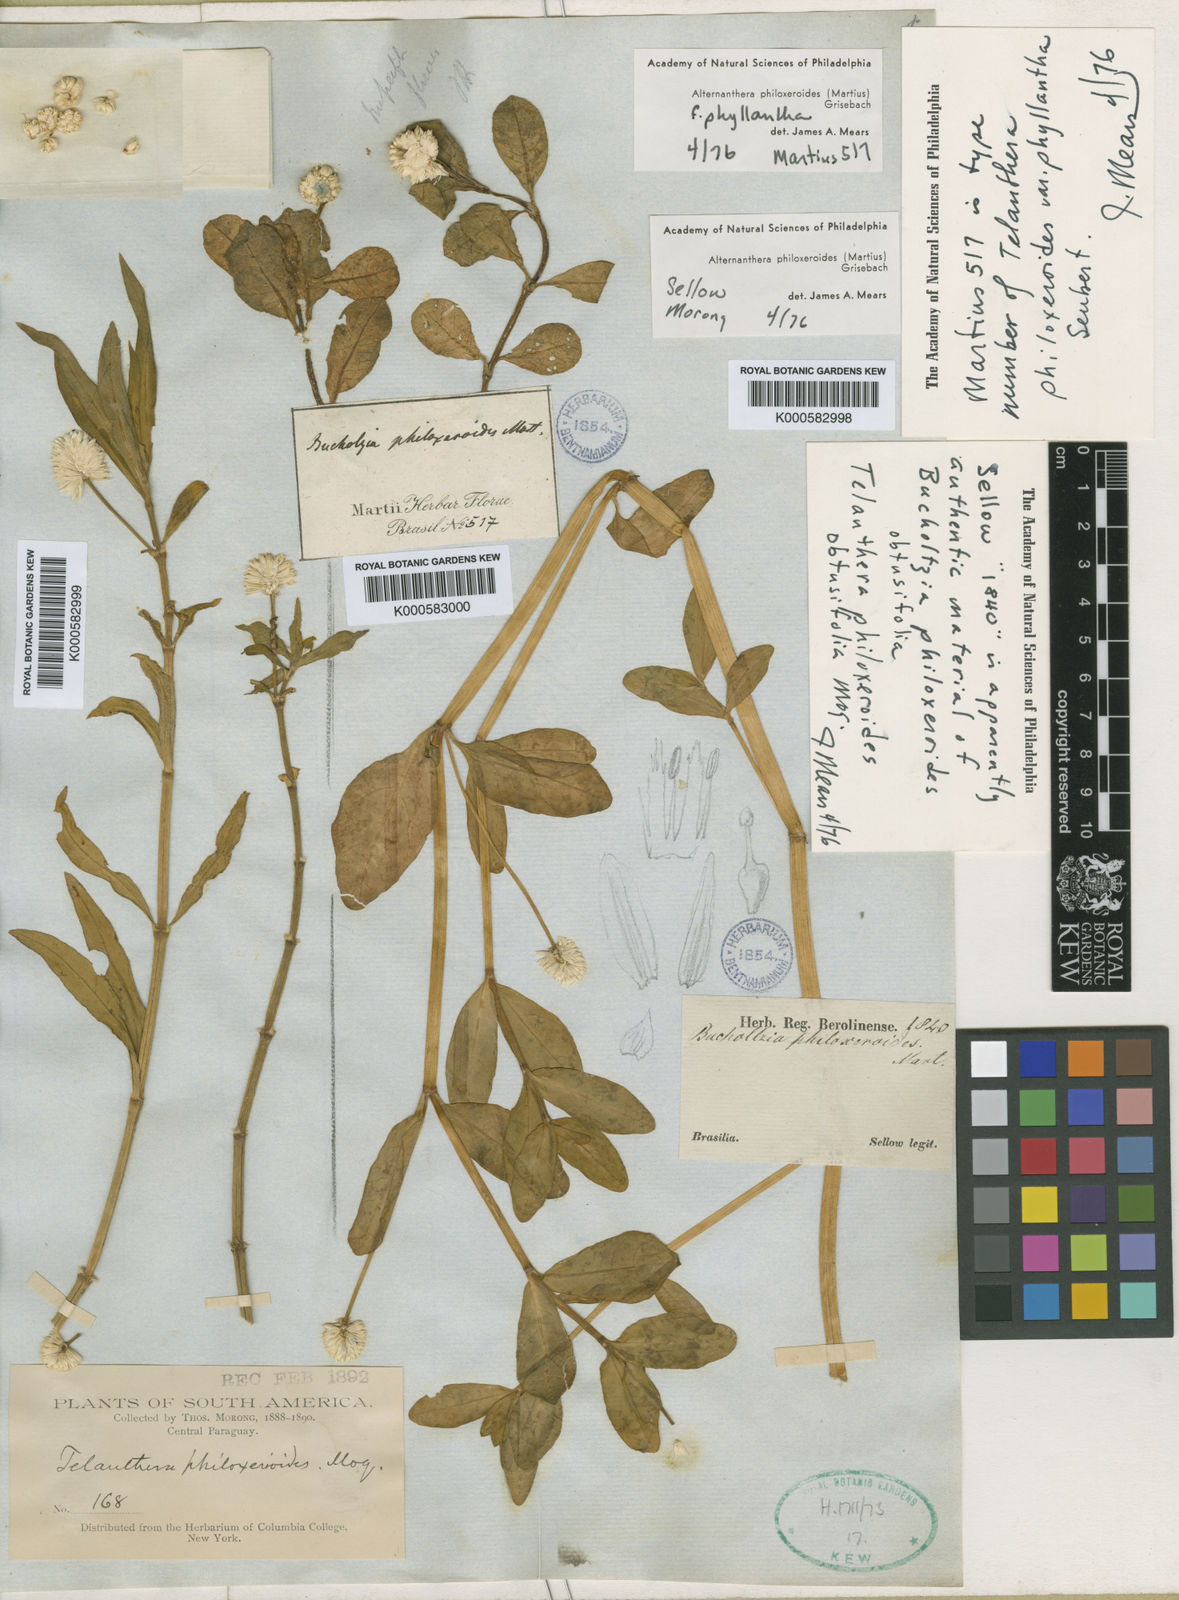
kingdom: Plantae
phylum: Tracheophyta
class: Magnoliopsida
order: Caryophyllales
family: Amaranthaceae
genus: Alternanthera
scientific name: Alternanthera philoxeroides
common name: Alligatorweed
